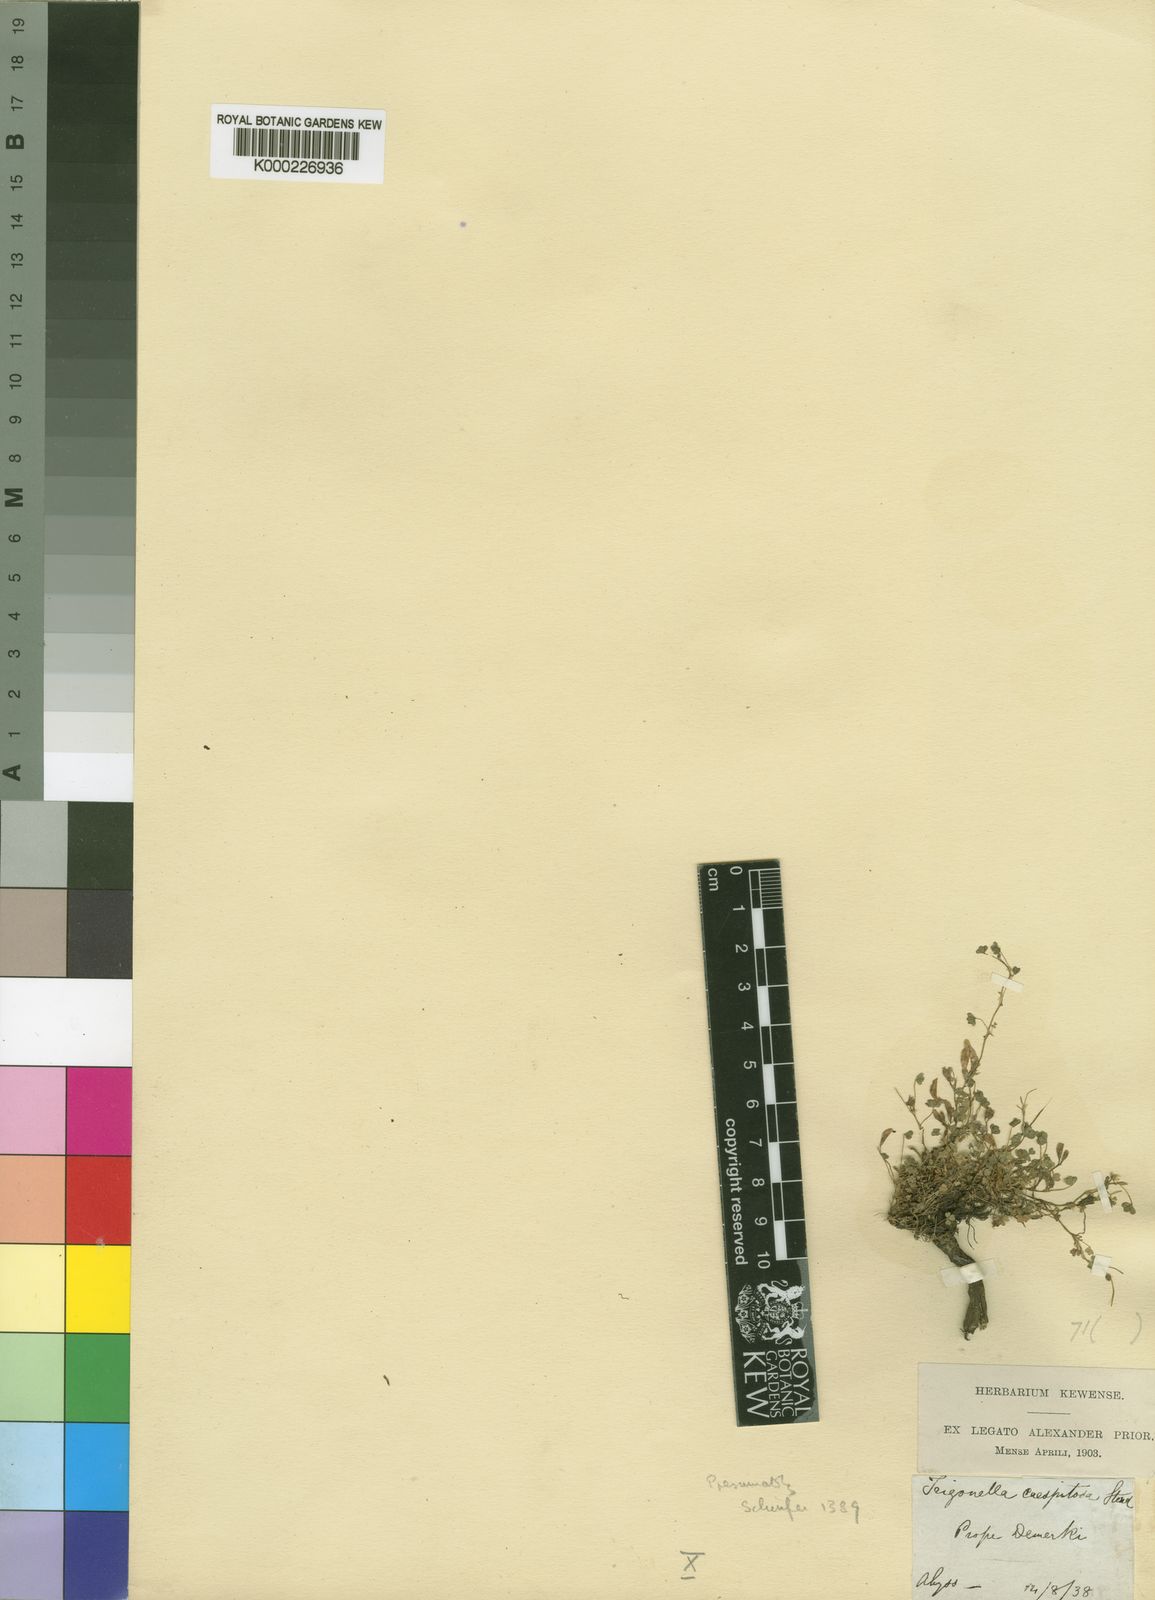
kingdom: Plantae
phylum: Tracheophyta
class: Magnoliopsida
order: Fabales
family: Fabaceae
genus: Trifolium
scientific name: Trifolium acaule
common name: Stemless clover
